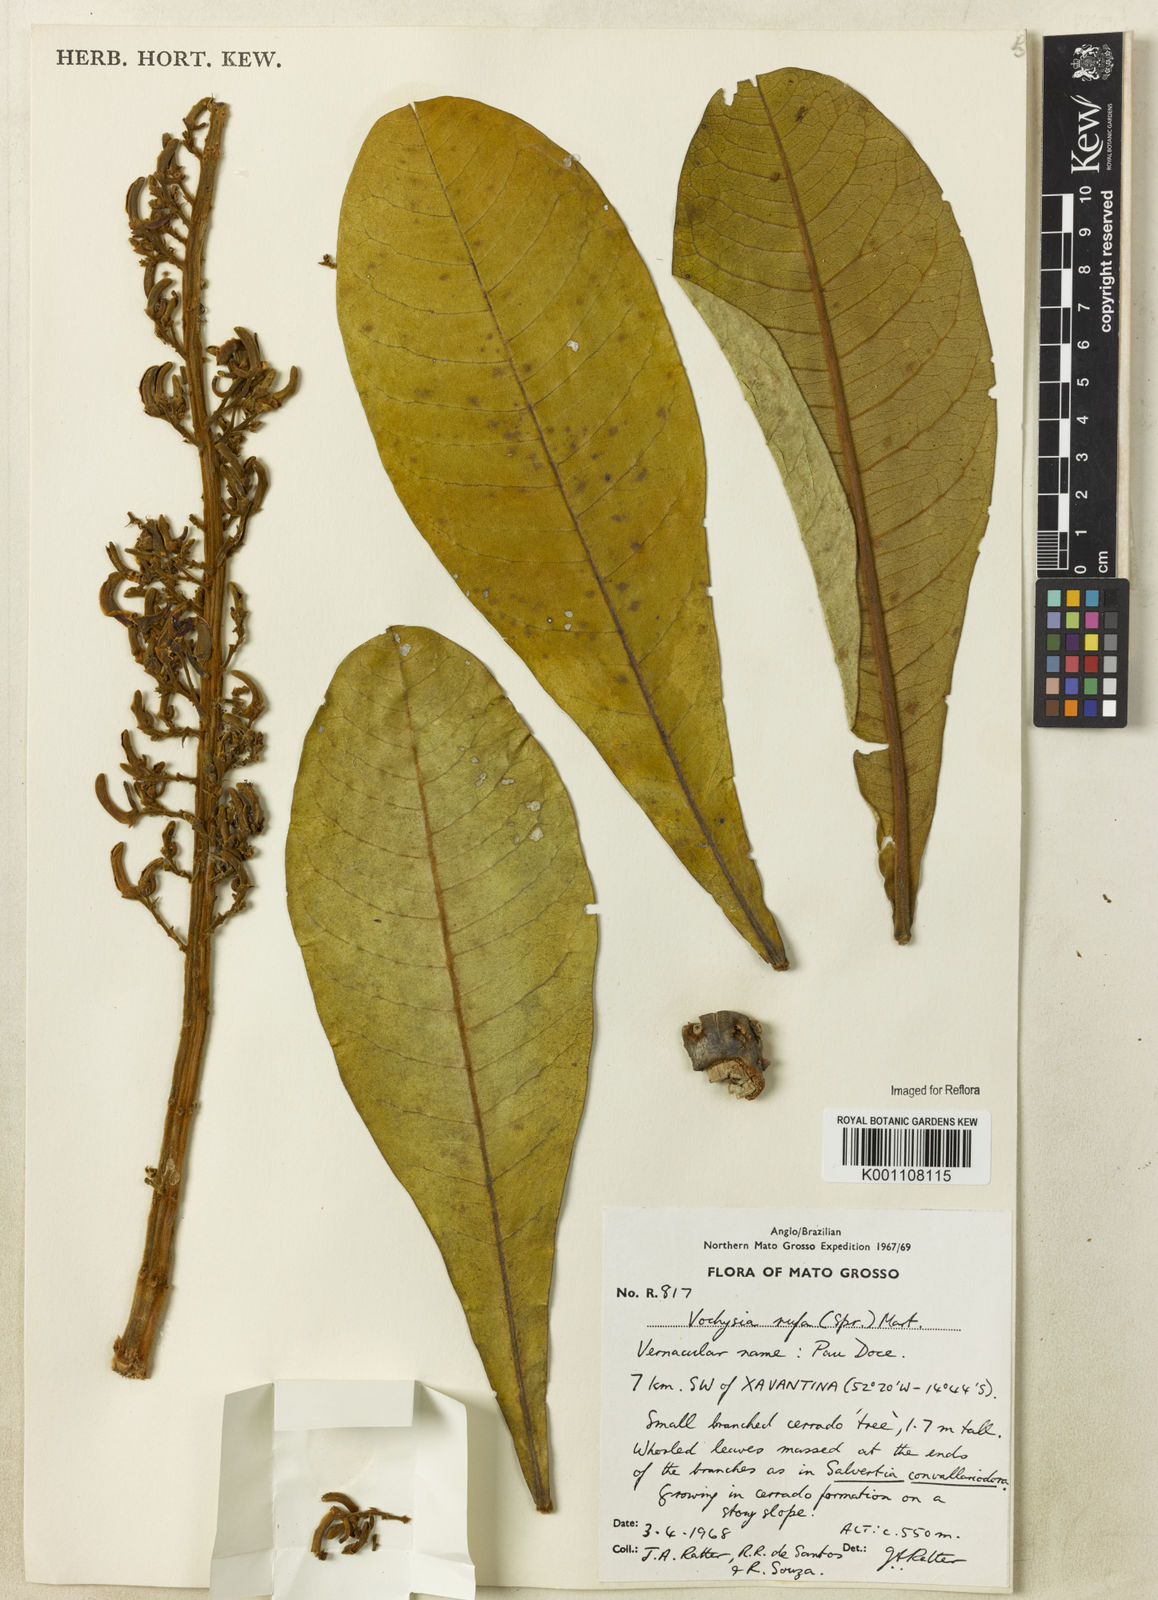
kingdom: Plantae
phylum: Tracheophyta
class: Magnoliopsida
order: Myrtales
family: Vochysiaceae
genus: Vochysia
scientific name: Vochysia rufa
